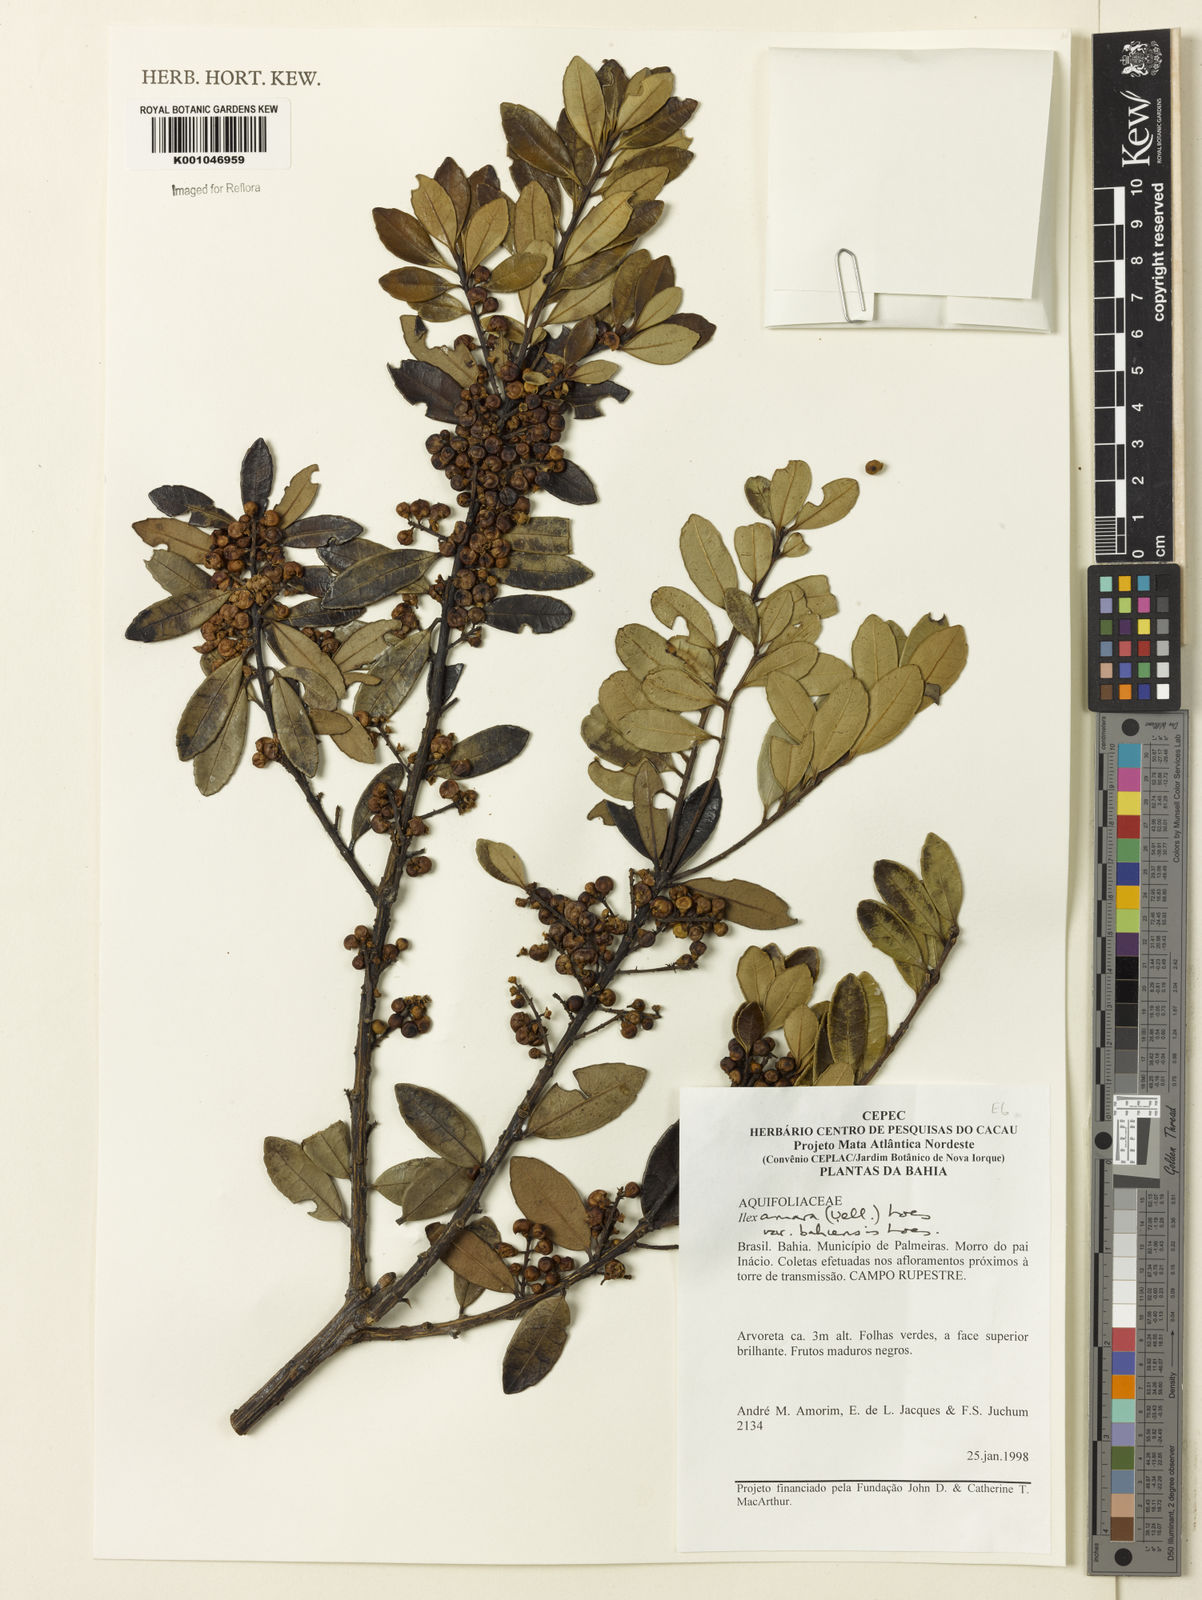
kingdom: Plantae
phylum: Tracheophyta
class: Magnoliopsida
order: Aquifoliales
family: Aquifoliaceae
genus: Ilex
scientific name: Ilex dumosa
